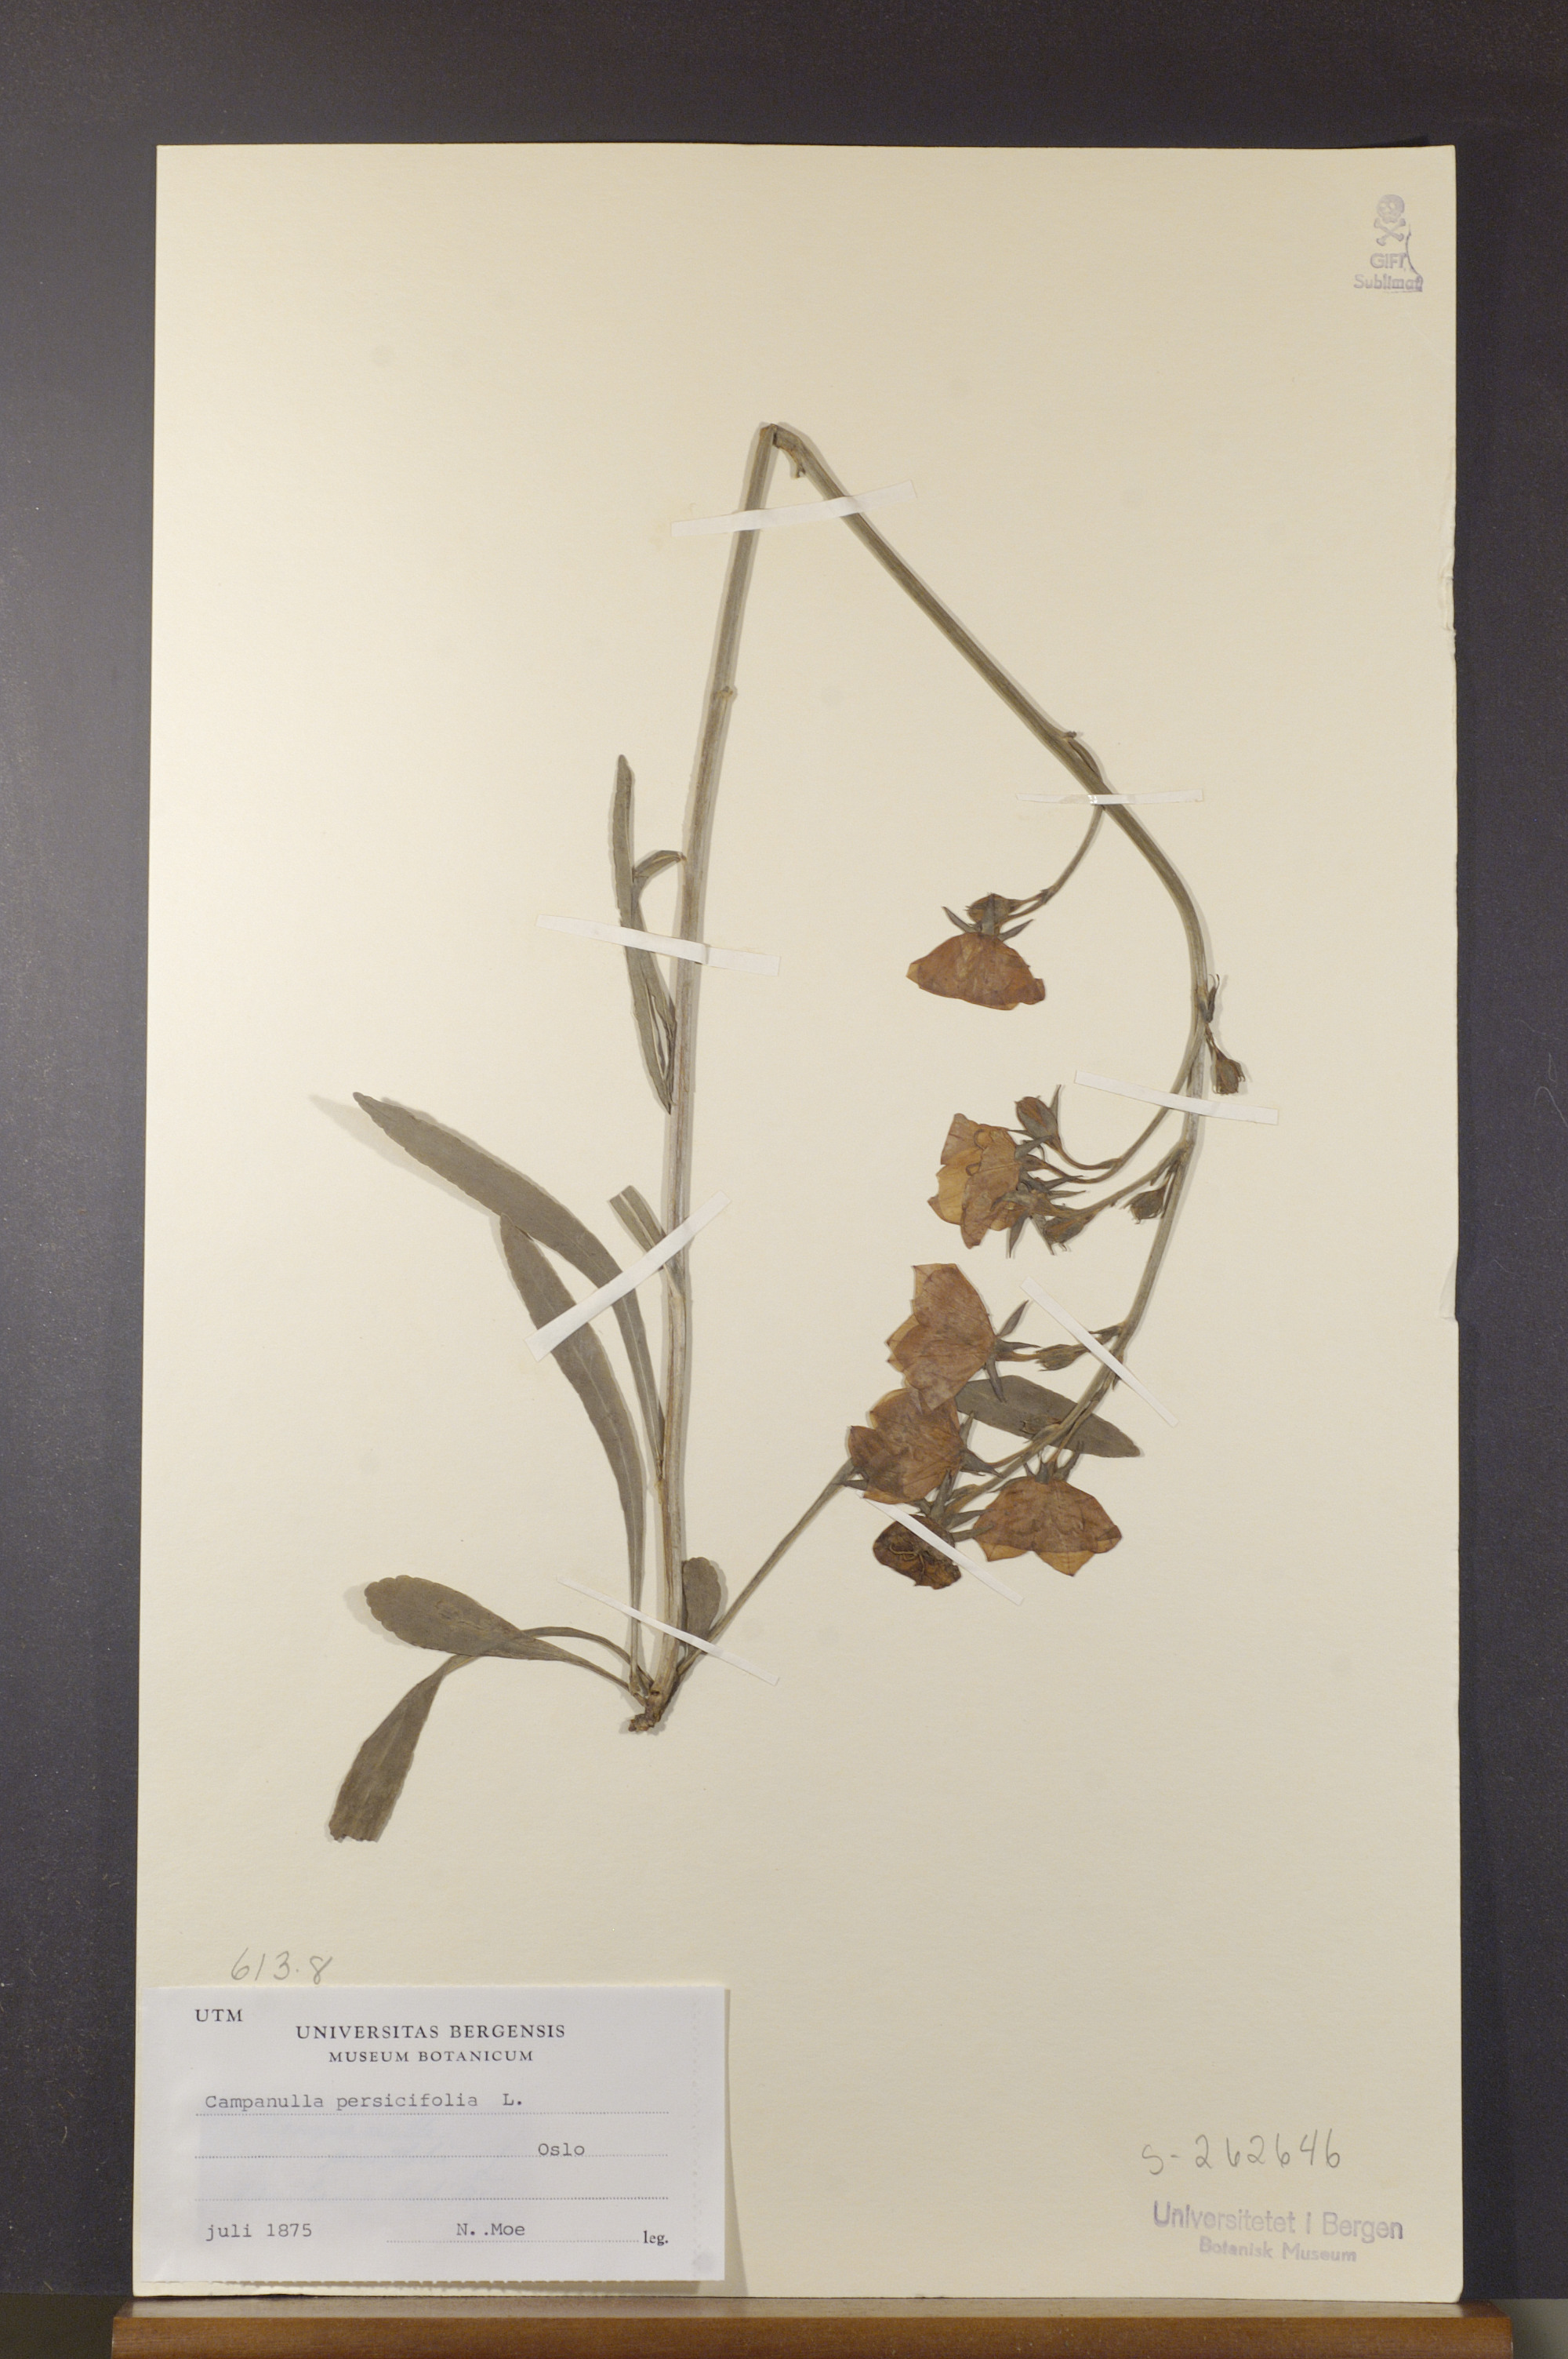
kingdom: Plantae
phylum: Tracheophyta
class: Magnoliopsida
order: Asterales
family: Campanulaceae
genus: Campanula
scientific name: Campanula persicifolia
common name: Peach-leaved bellflower
